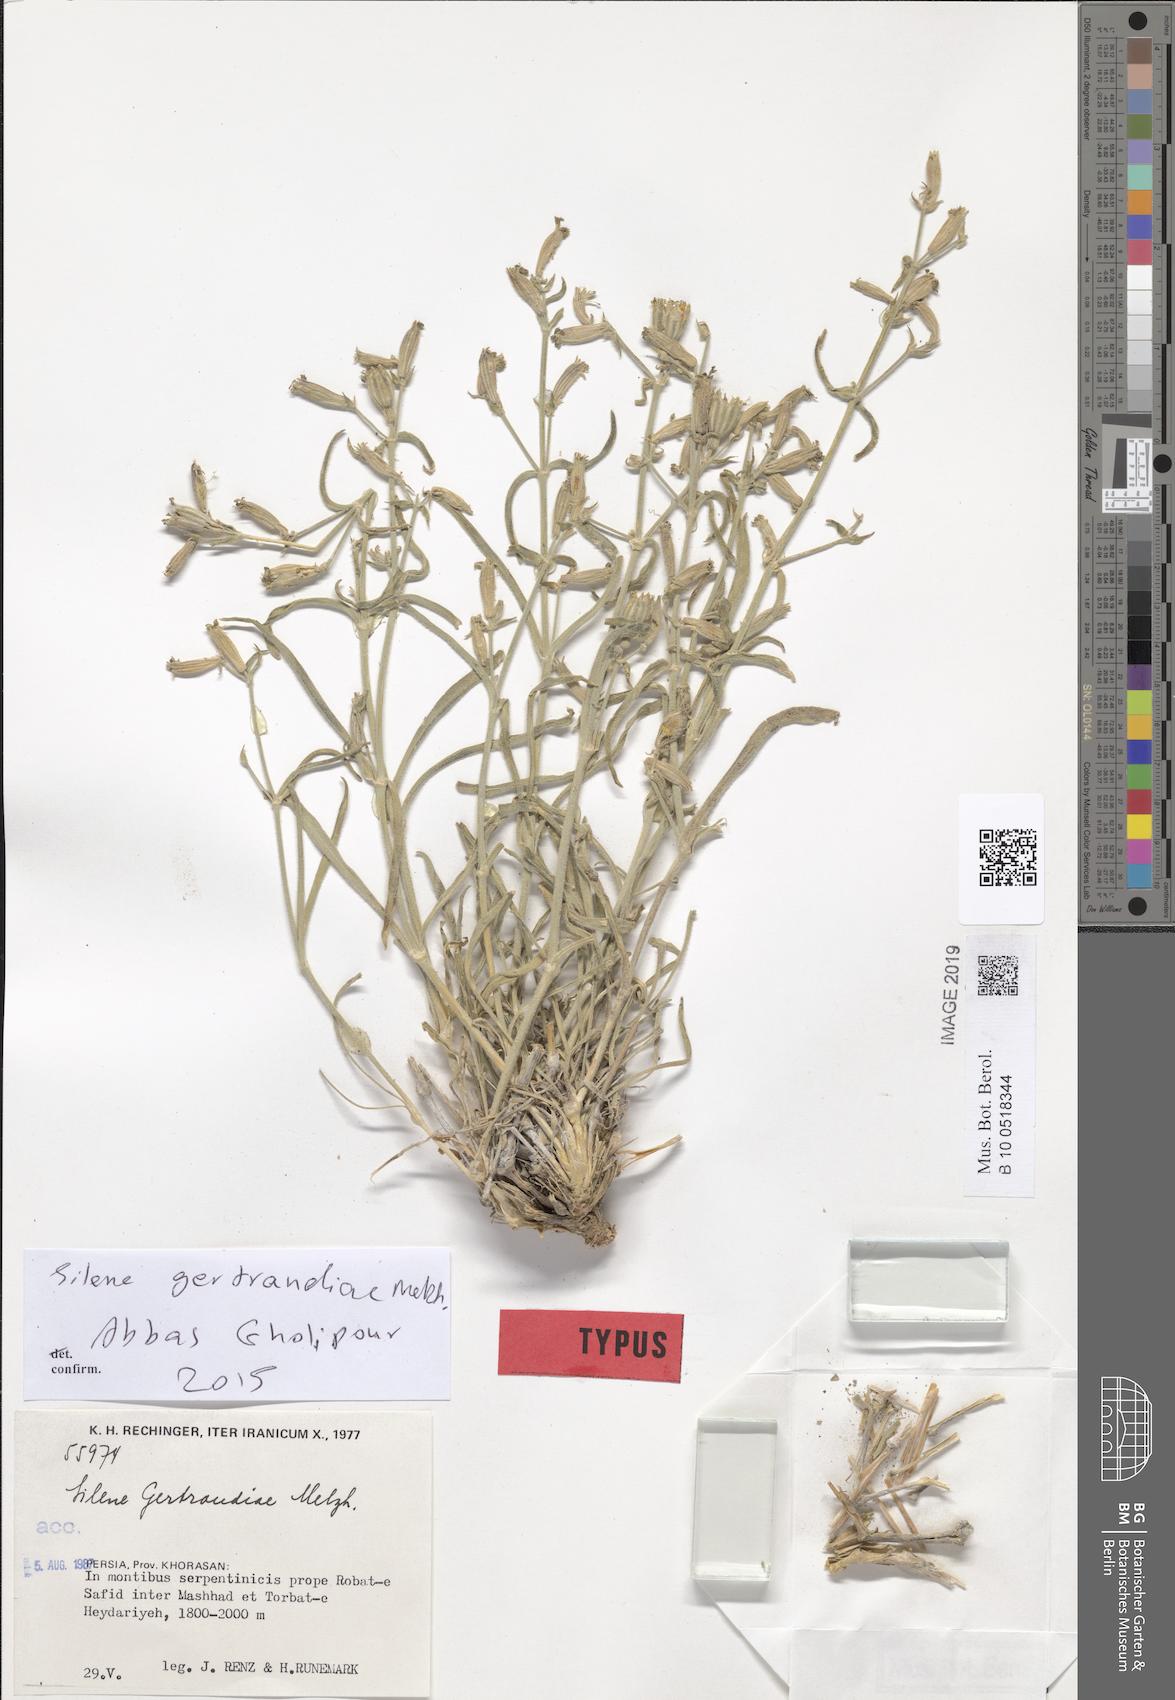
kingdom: Plantae
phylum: Tracheophyta
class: Magnoliopsida
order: Caryophyllales
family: Caryophyllaceae
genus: Silene
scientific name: Silene gertraudiae
